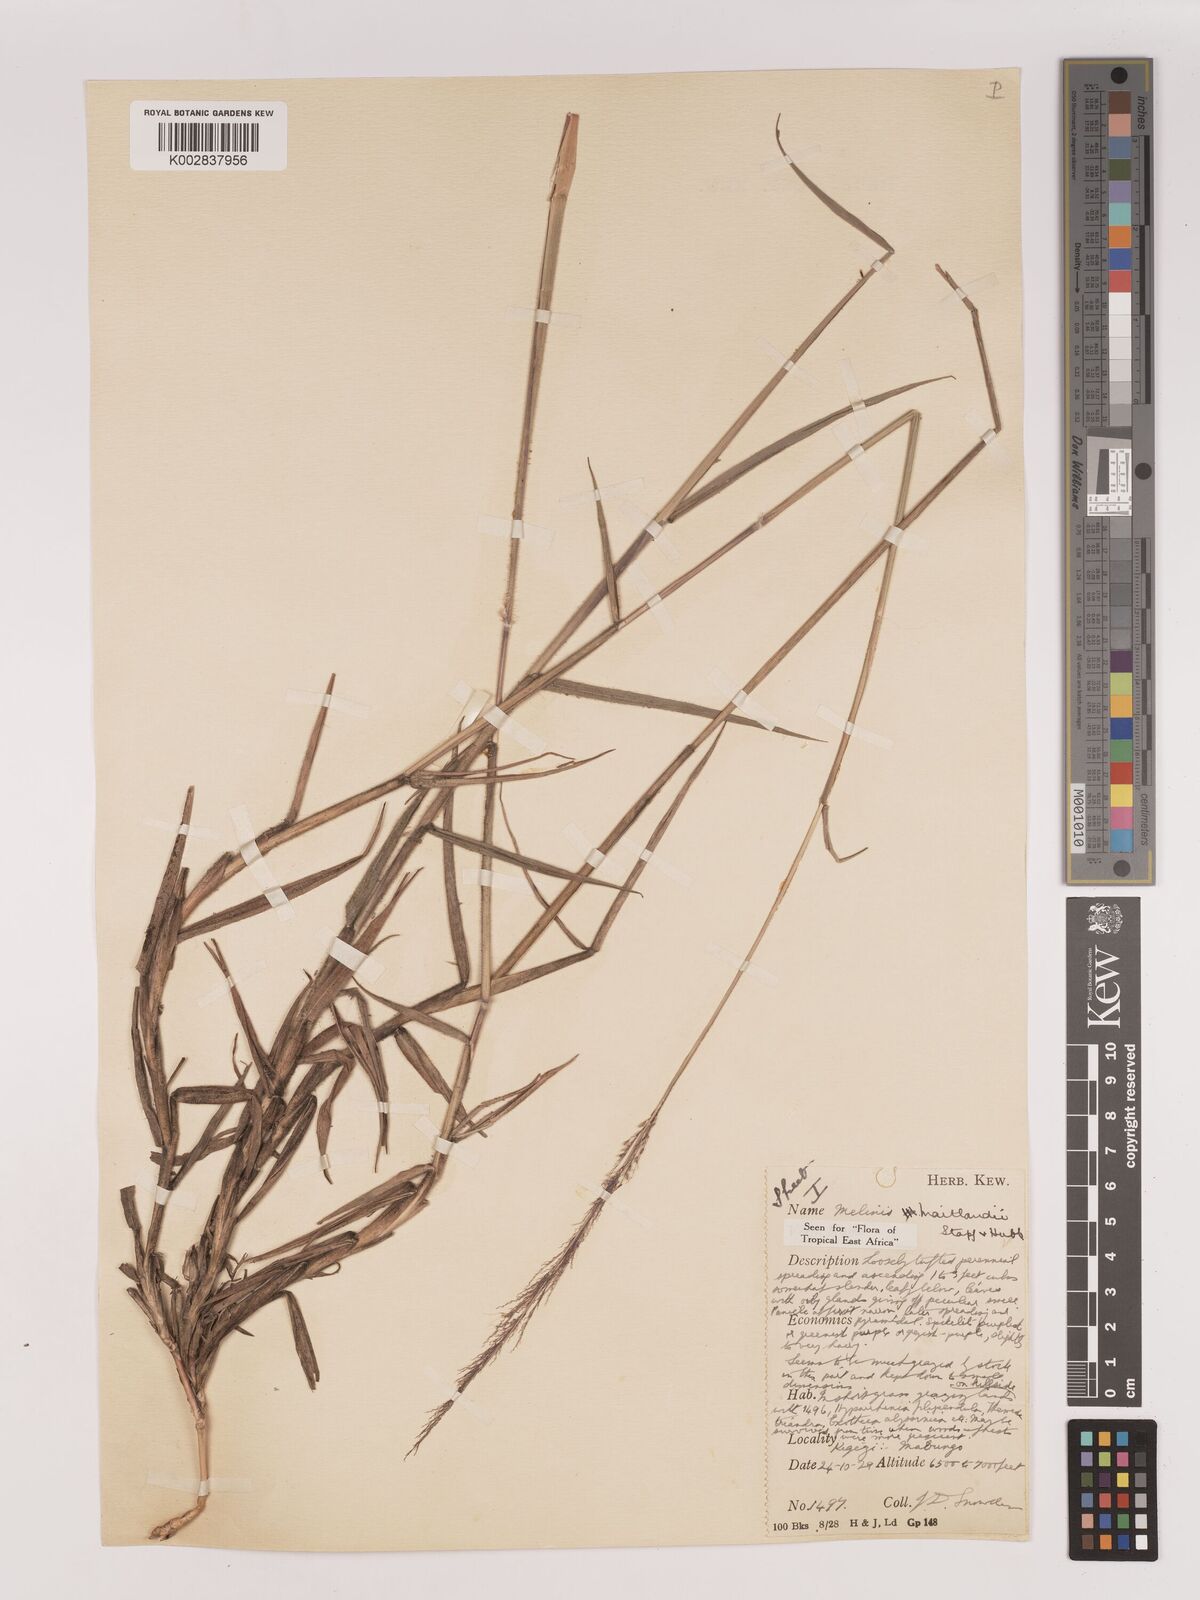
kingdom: Plantae
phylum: Tracheophyta
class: Liliopsida
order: Poales
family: Poaceae
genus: Melinis
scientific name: Melinis minutiflora
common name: Molassesgrass
